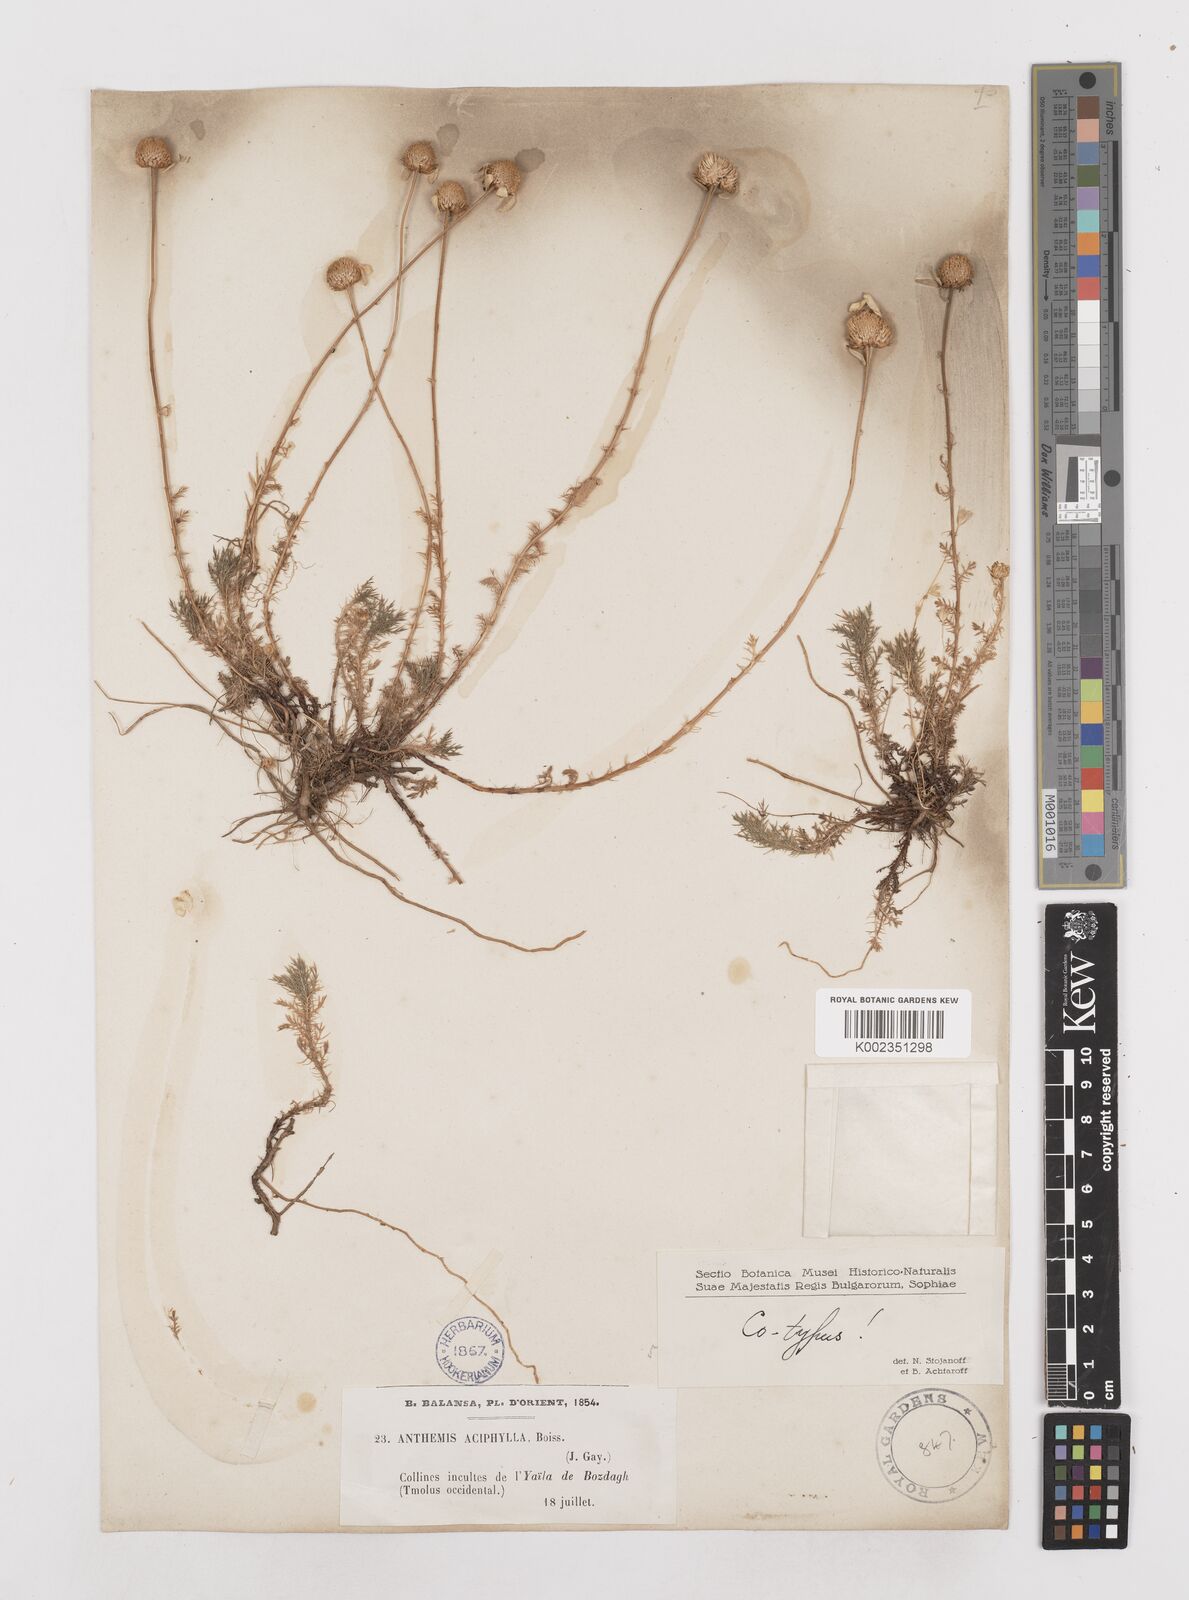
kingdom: Plantae
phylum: Tracheophyta
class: Magnoliopsida
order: Asterales
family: Asteraceae
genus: Anthemis
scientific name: Anthemis aciphylla
